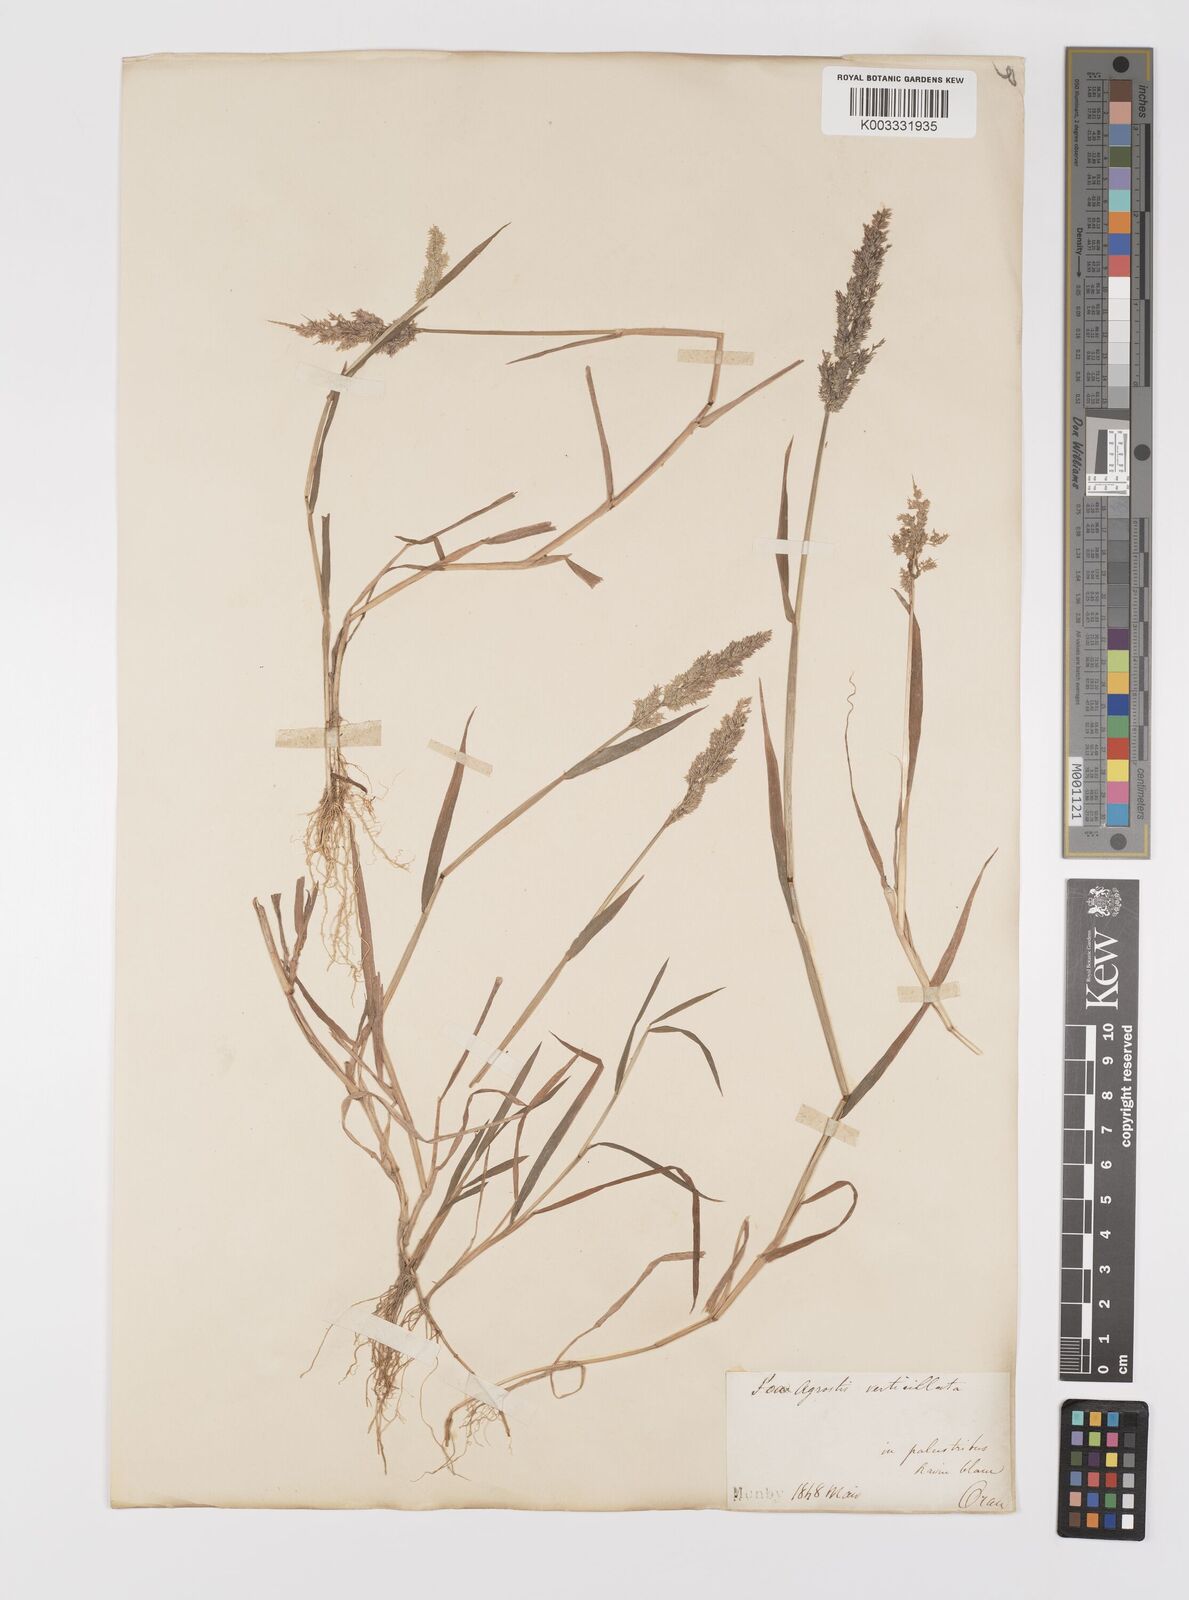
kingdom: Plantae
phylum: Tracheophyta
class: Liliopsida
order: Poales
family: Poaceae
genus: Polypogon
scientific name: Polypogon viridis
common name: Water bent
